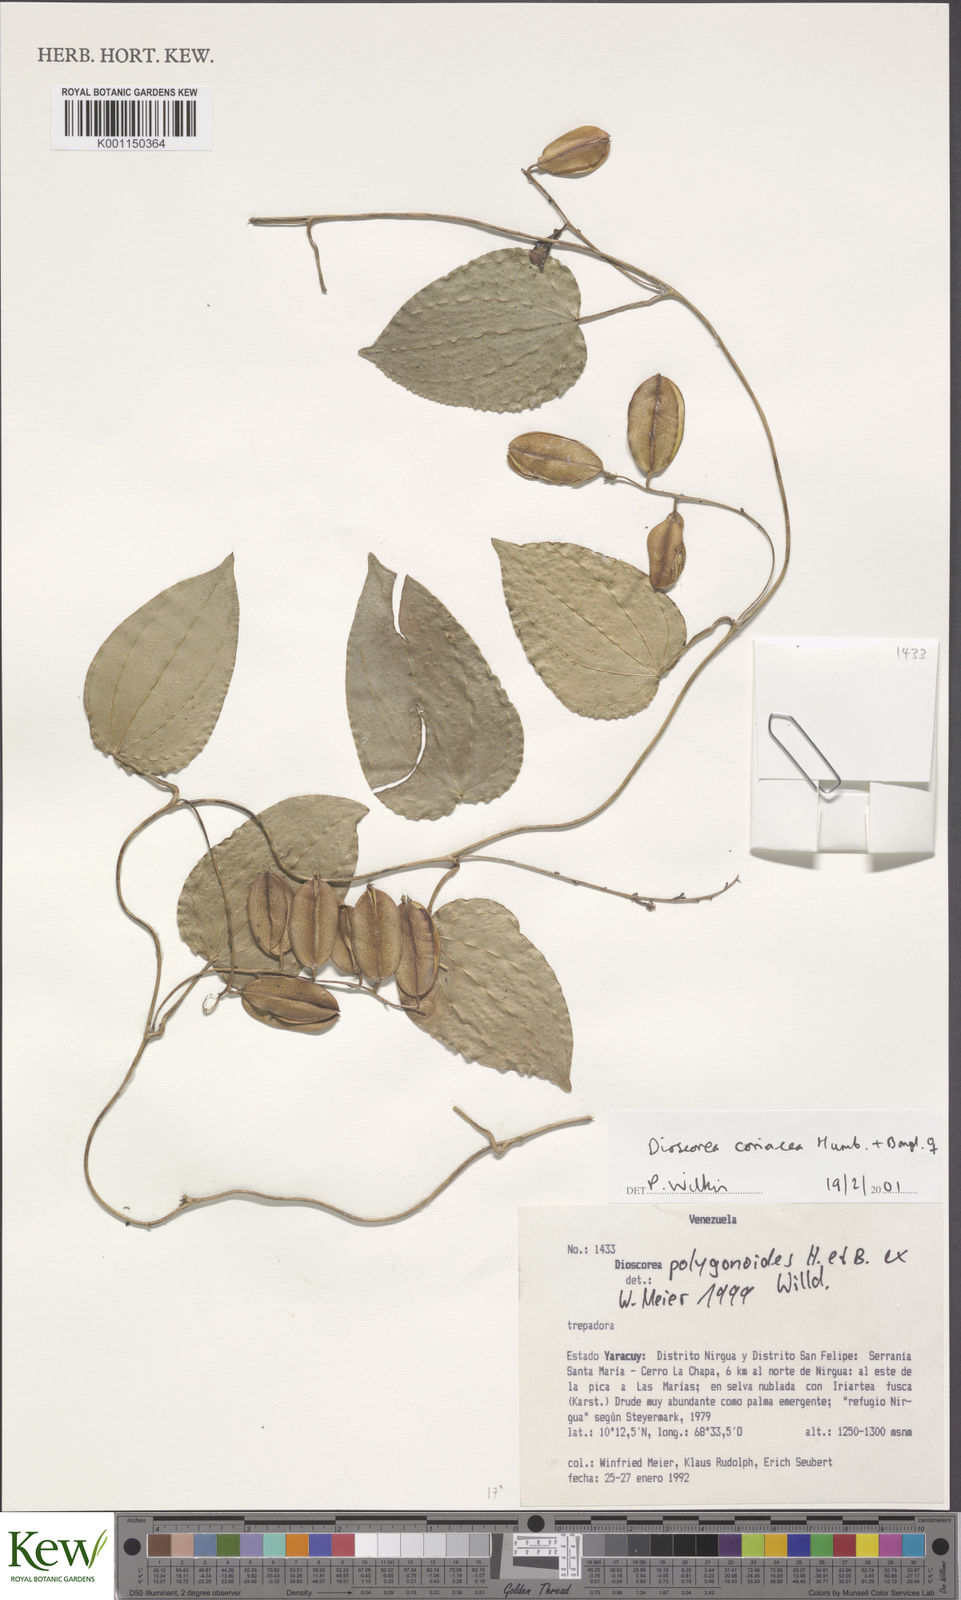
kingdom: Plantae
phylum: Tracheophyta
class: Liliopsida
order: Dioscoreales
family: Dioscoreaceae
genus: Dioscorea
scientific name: Dioscorea coriacea
